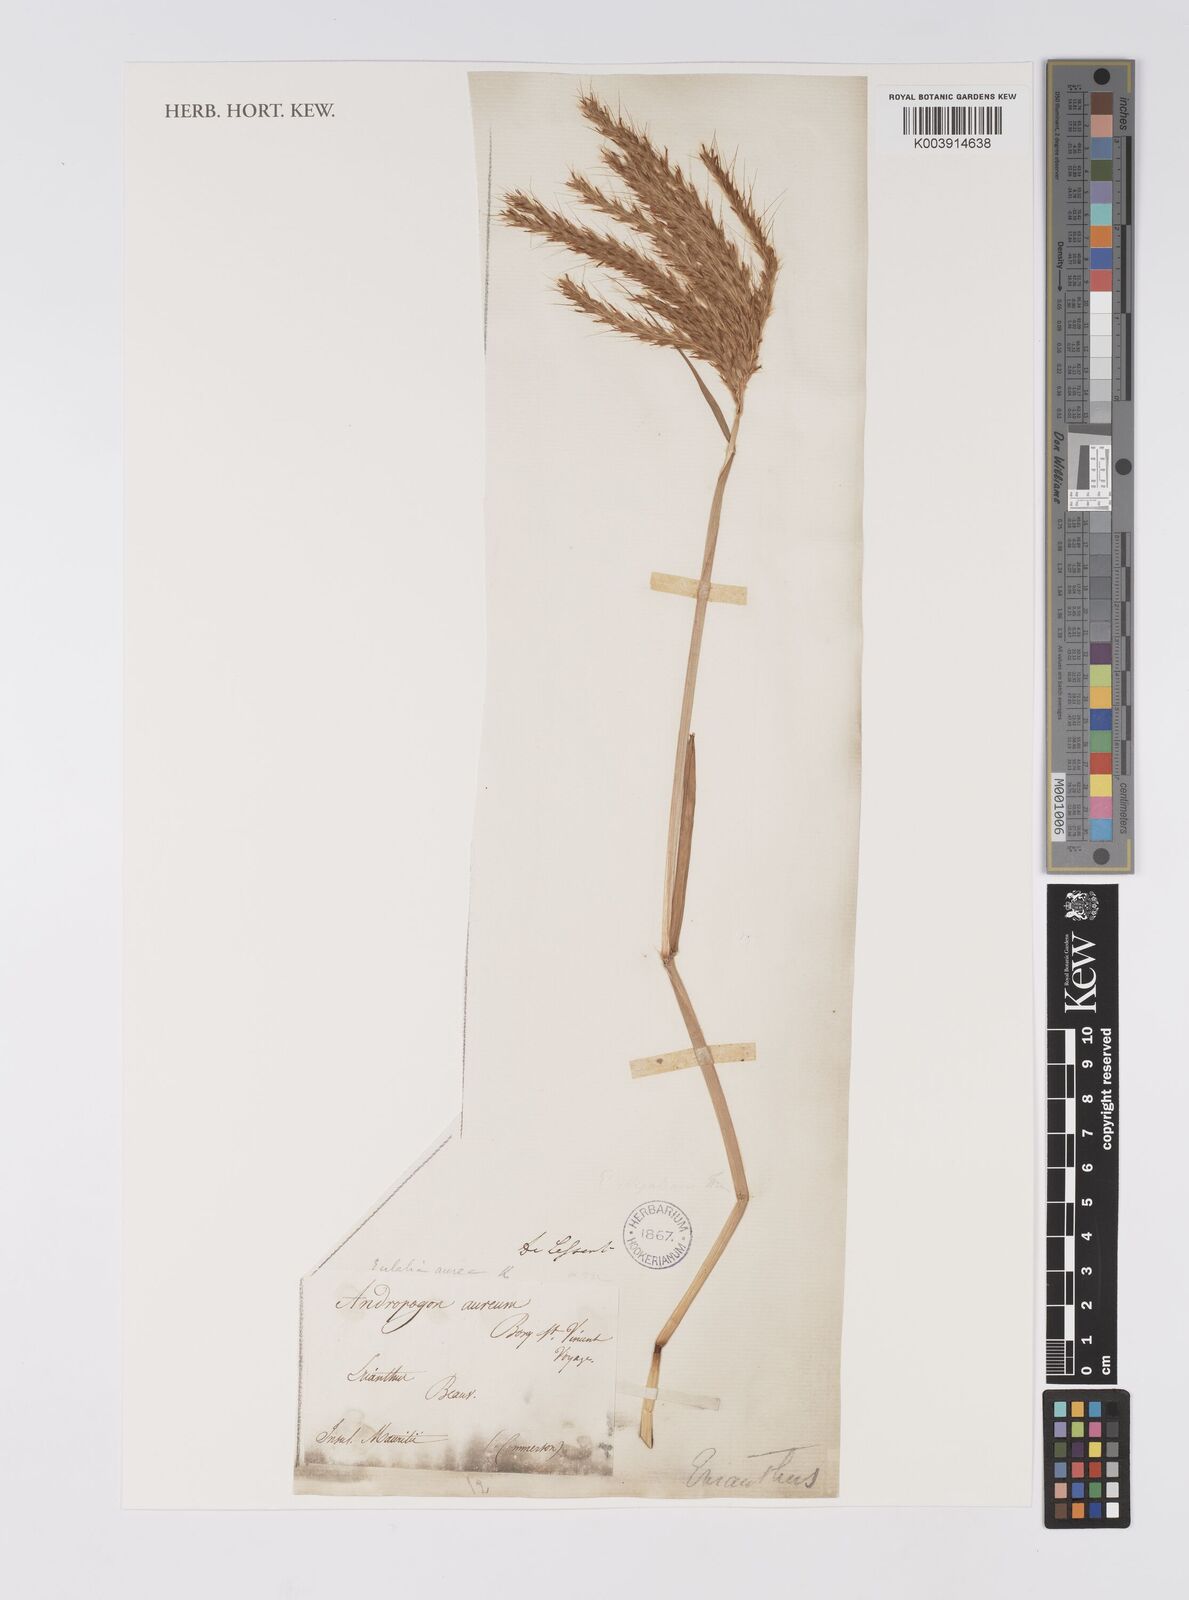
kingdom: Plantae
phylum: Tracheophyta
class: Liliopsida
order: Poales
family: Poaceae
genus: Eulalia
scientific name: Eulalia aurea
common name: Silky browntop
